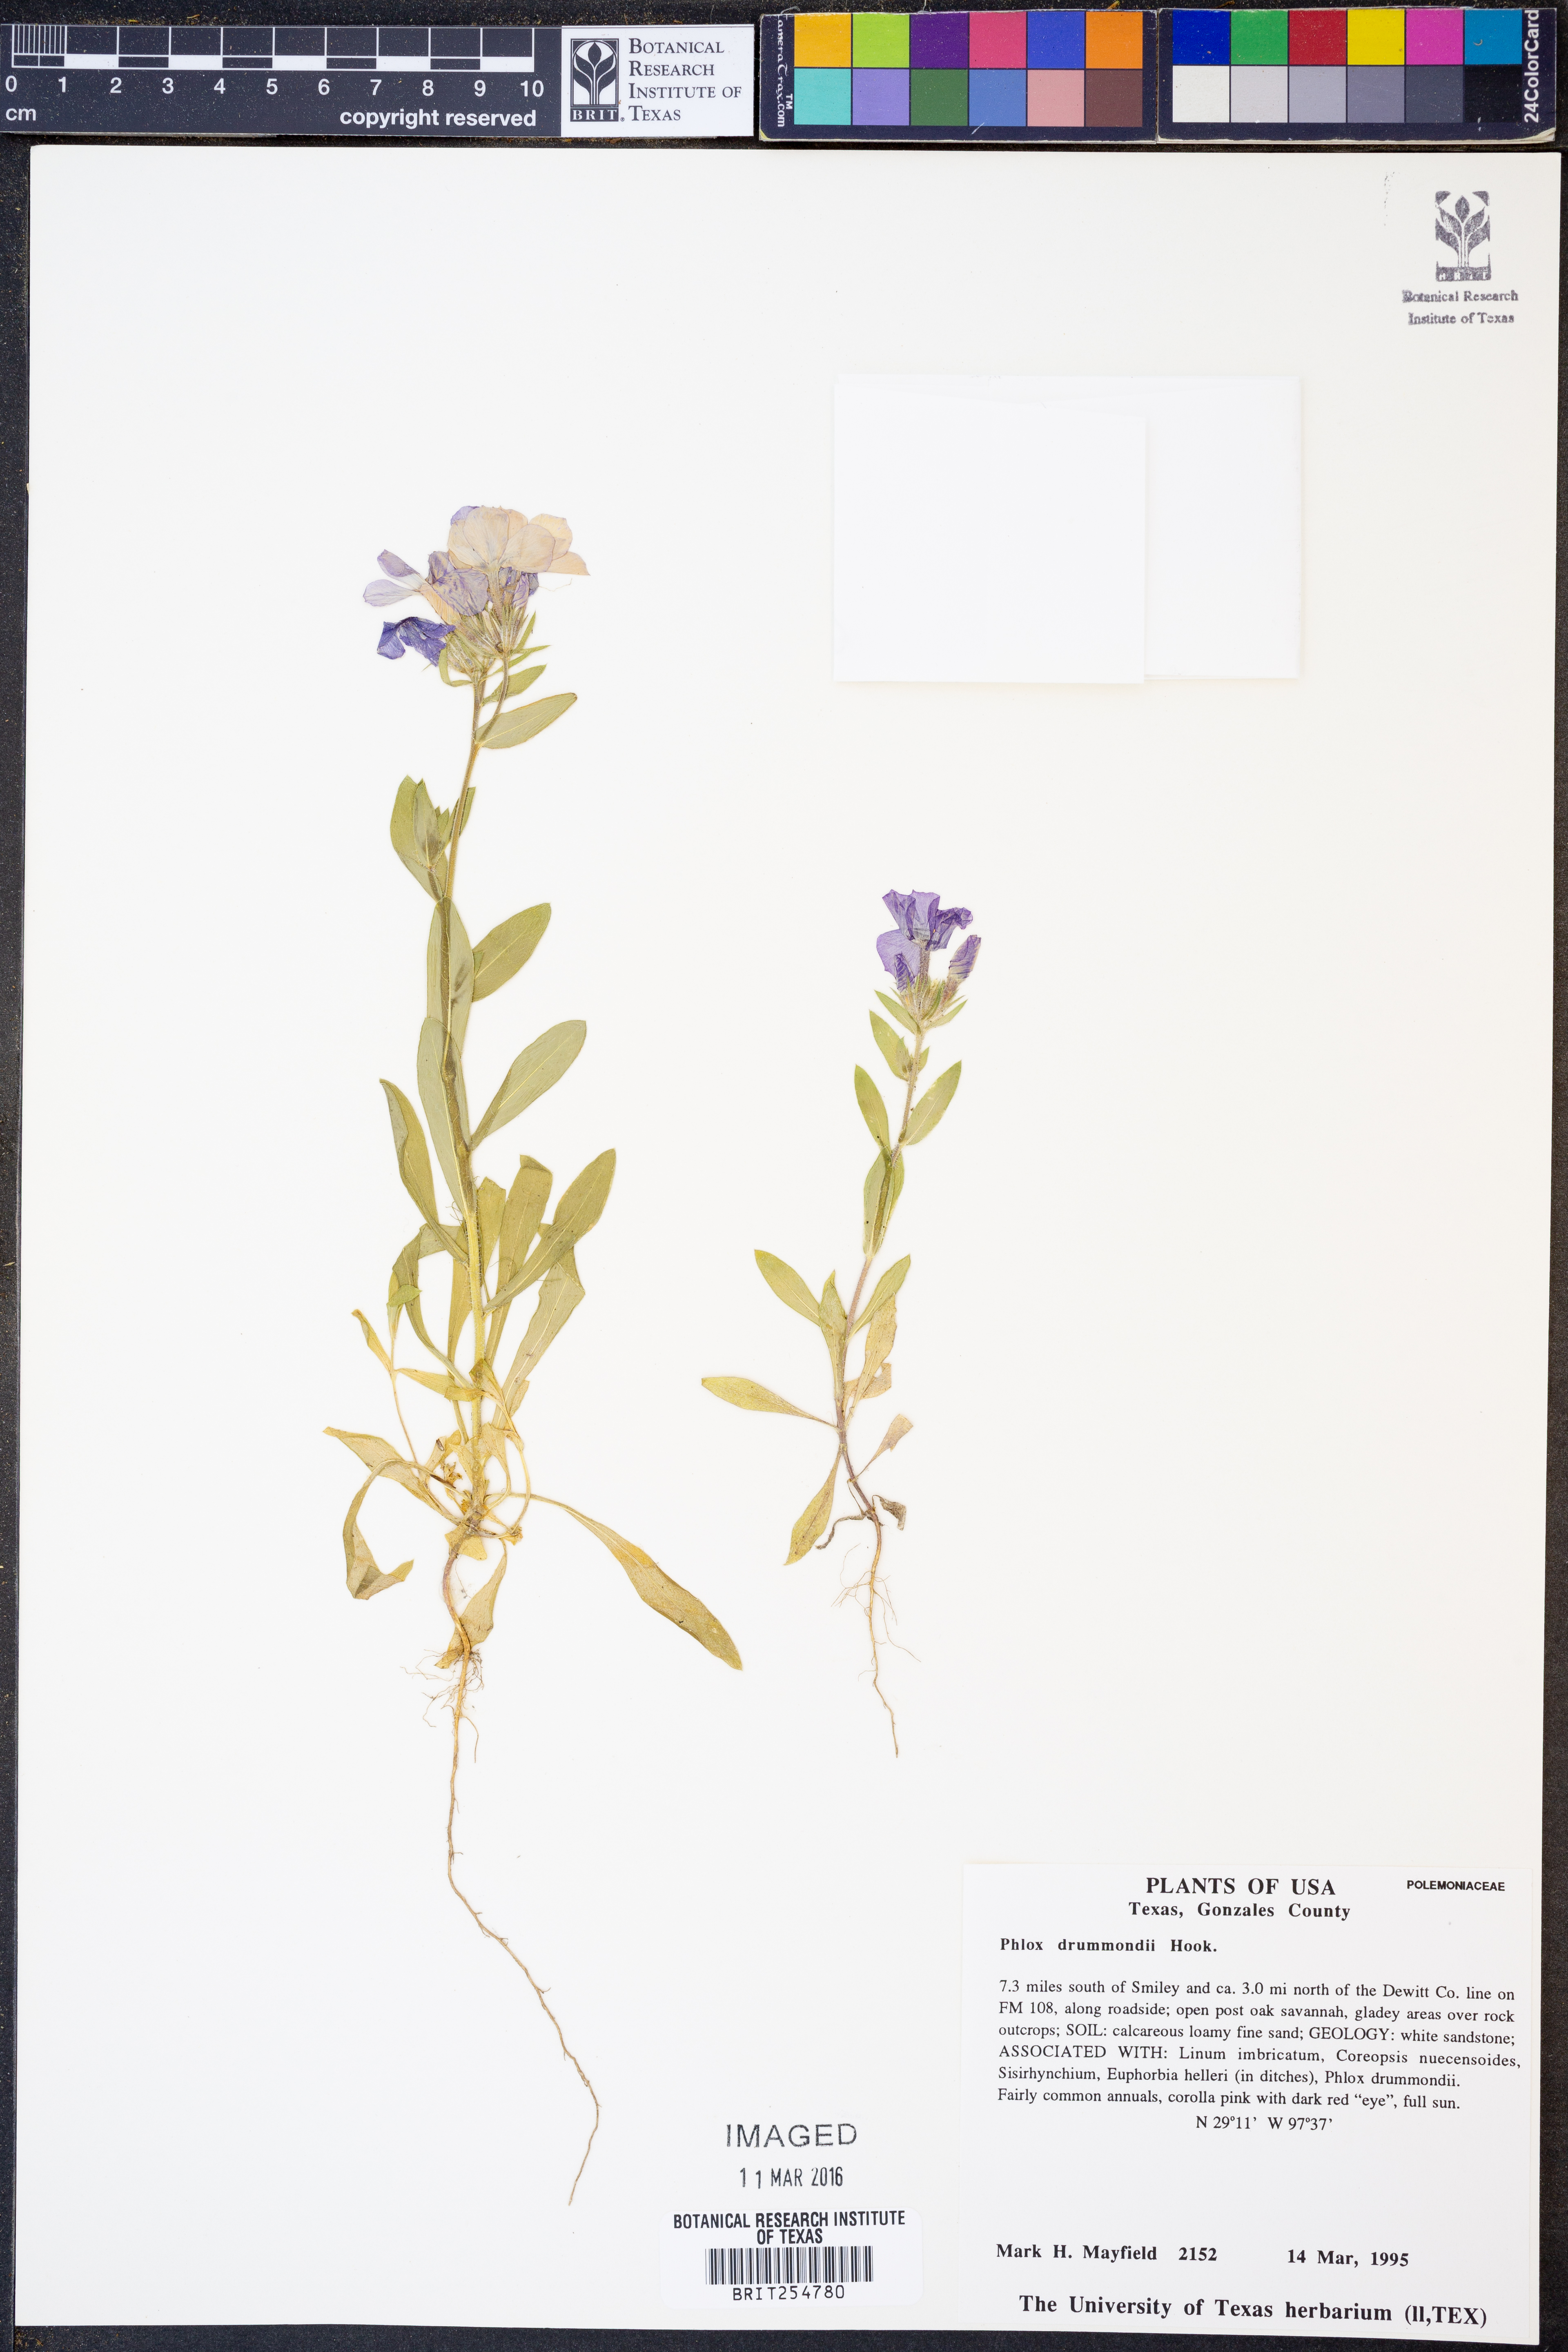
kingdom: Plantae
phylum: Tracheophyta
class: Magnoliopsida
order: Ericales
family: Polemoniaceae
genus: Phlox
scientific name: Phlox drummondii
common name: Drummond's phlox
